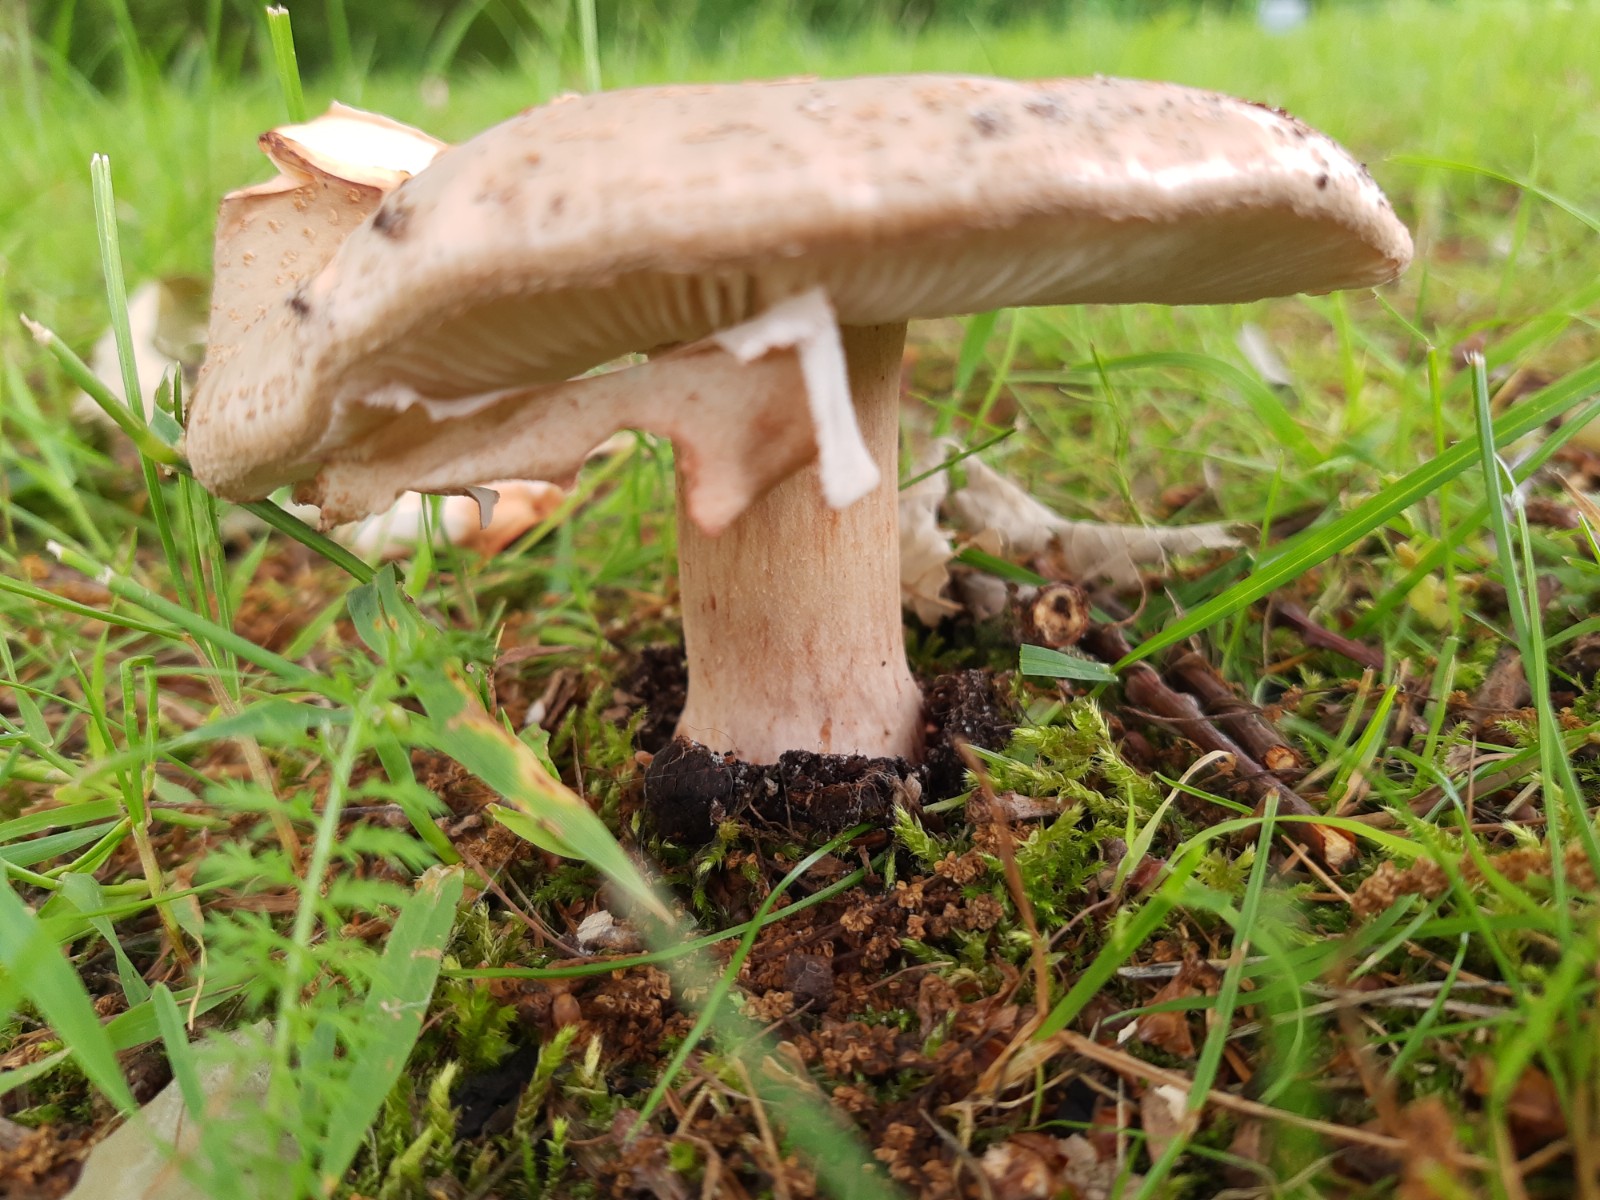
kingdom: Fungi
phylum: Basidiomycota
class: Agaricomycetes
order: Agaricales
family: Amanitaceae
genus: Amanita
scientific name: Amanita rubescens
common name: rødmende fluesvamp
